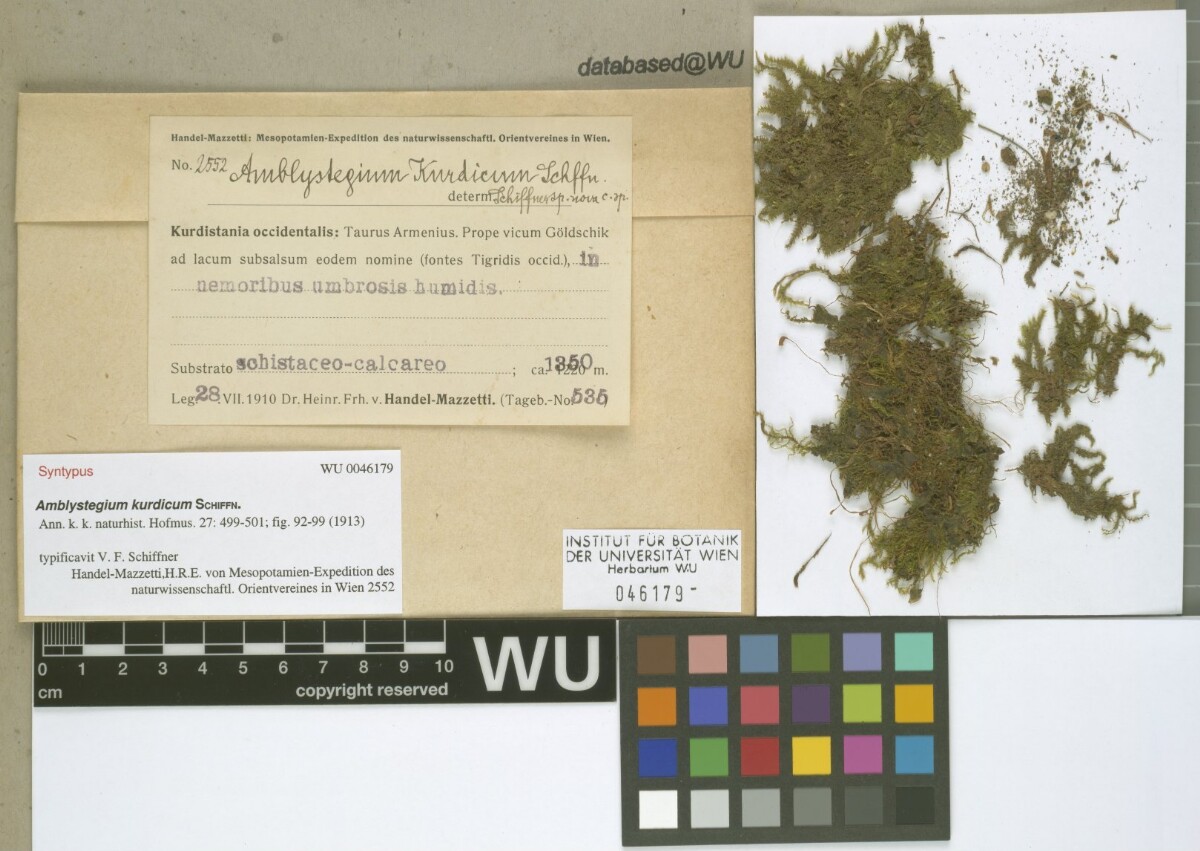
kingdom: Plantae
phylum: Bryophyta
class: Bryopsida
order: Hypnales
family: Amblystegiaceae
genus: Leptodictyum
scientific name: Leptodictyum kurdicum
